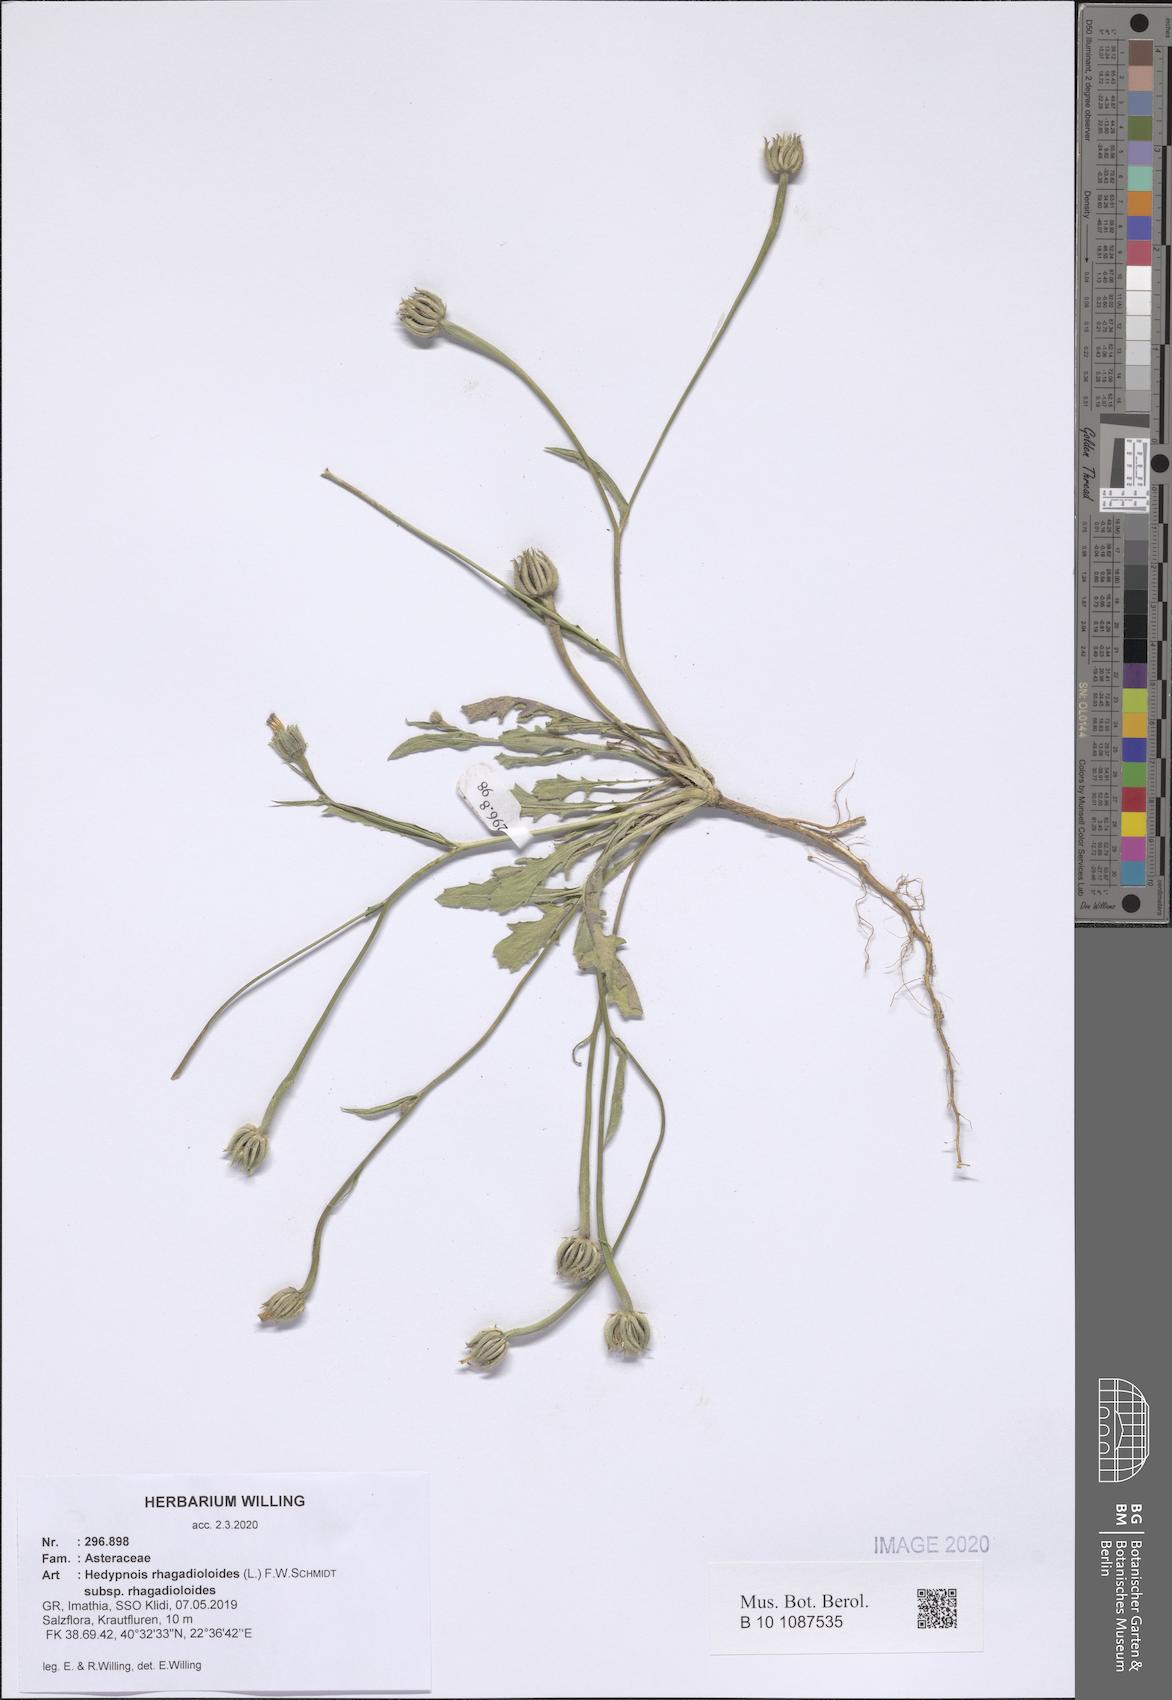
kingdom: Plantae
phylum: Tracheophyta
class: Magnoliopsida
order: Asterales
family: Asteraceae
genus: Hedypnois
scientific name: Hedypnois rhagadioloides
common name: Cretan weed
